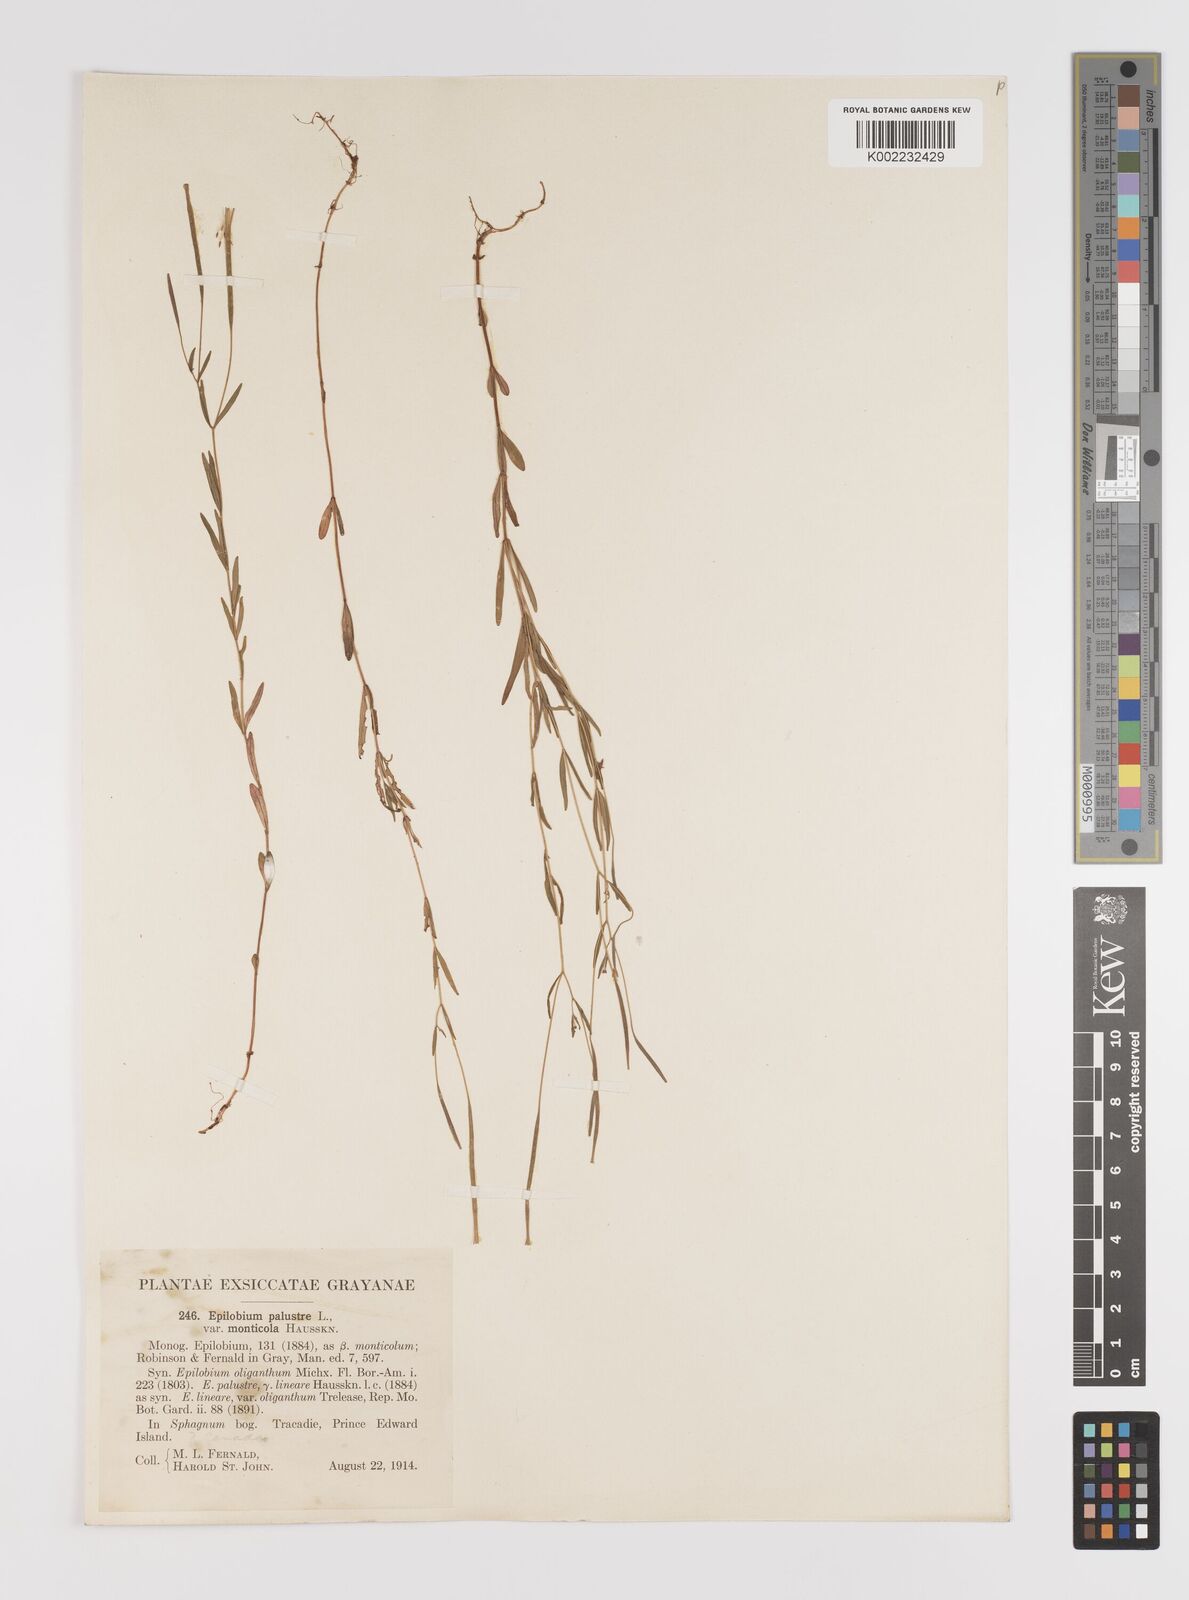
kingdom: Plantae
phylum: Tracheophyta
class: Magnoliopsida
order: Myrtales
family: Onagraceae
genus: Epilobium
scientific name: Epilobium palustre
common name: Marsh willowherb
